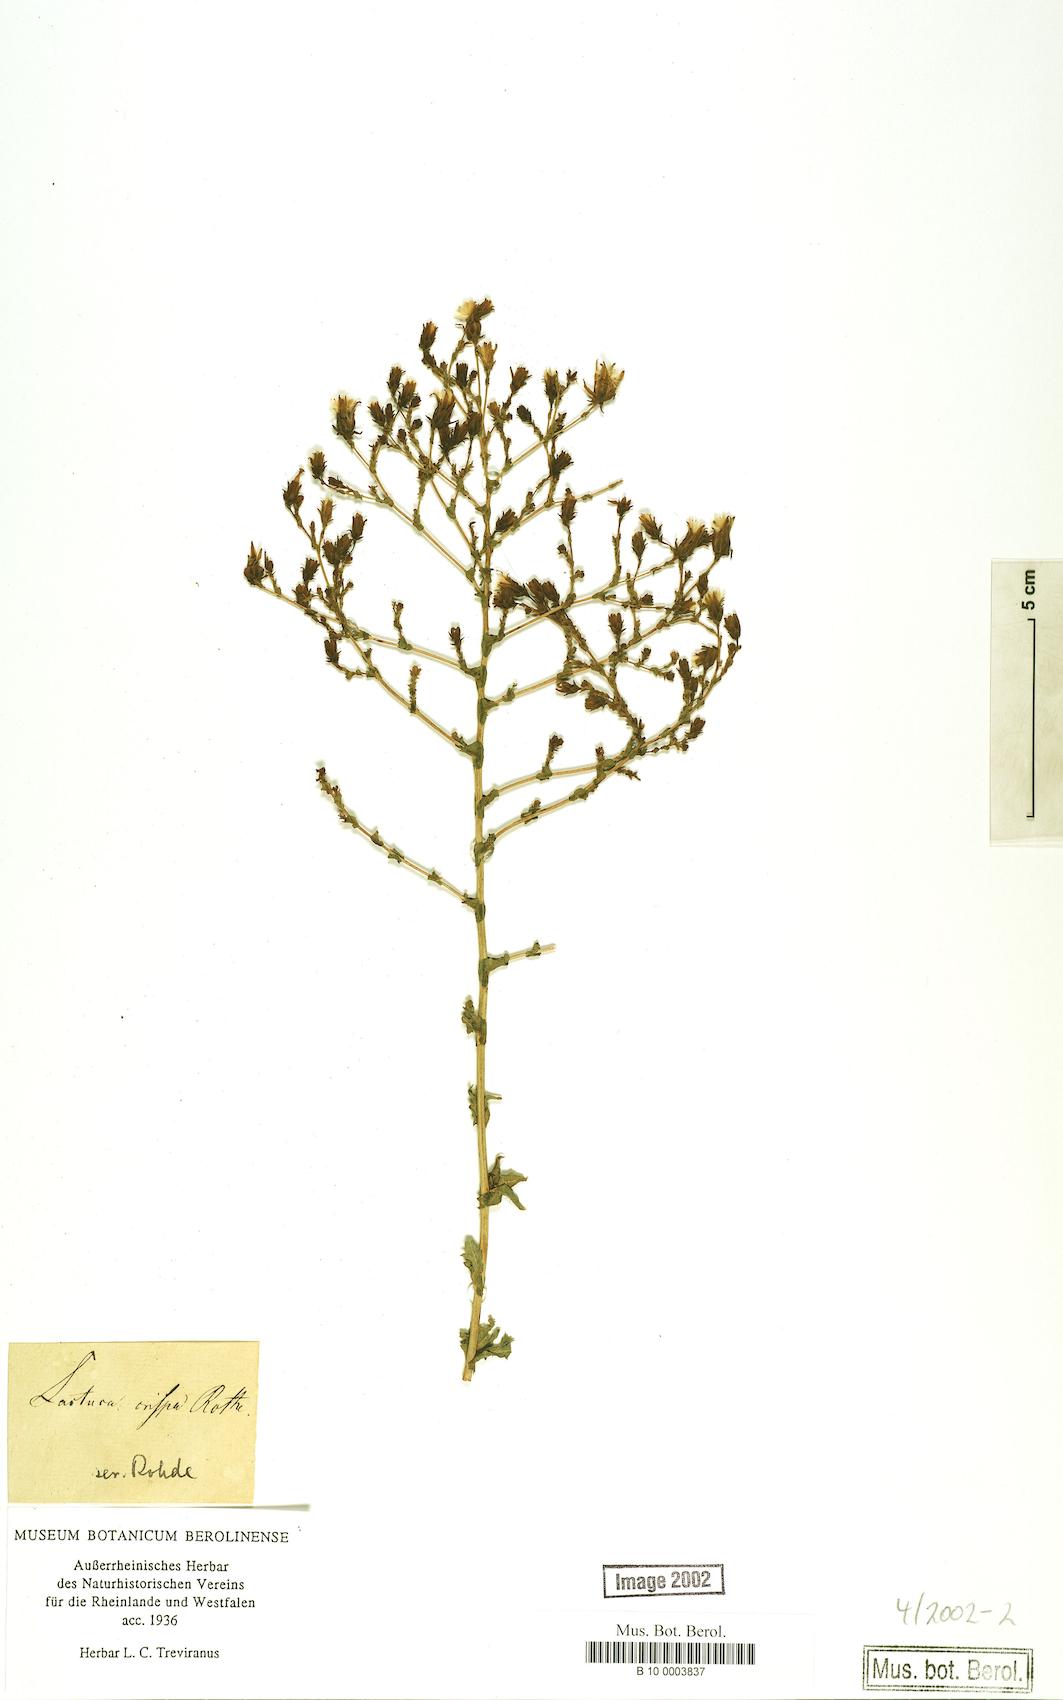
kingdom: Plantae
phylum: Tracheophyta
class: Magnoliopsida
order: Asterales
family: Asteraceae
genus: Lactuca
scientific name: Lactuca sativa
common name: Garden lettuce
